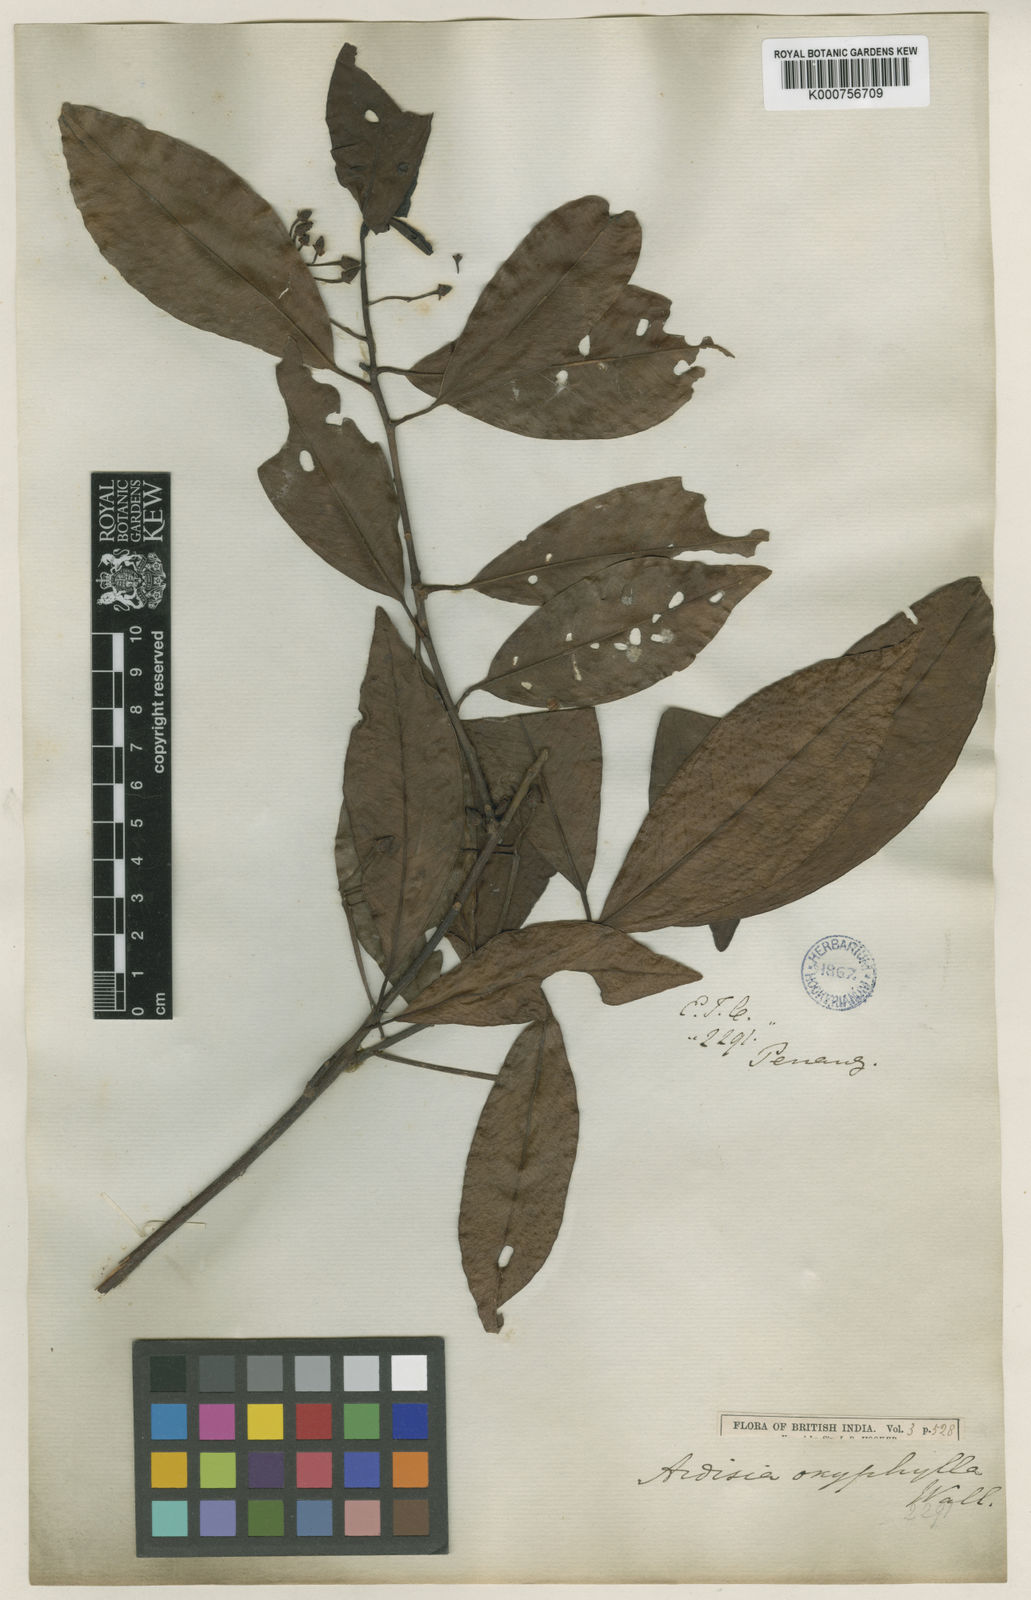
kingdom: Plantae
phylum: Tracheophyta
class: Magnoliopsida
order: Ericales
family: Primulaceae
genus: Ardisia
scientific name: Ardisia
